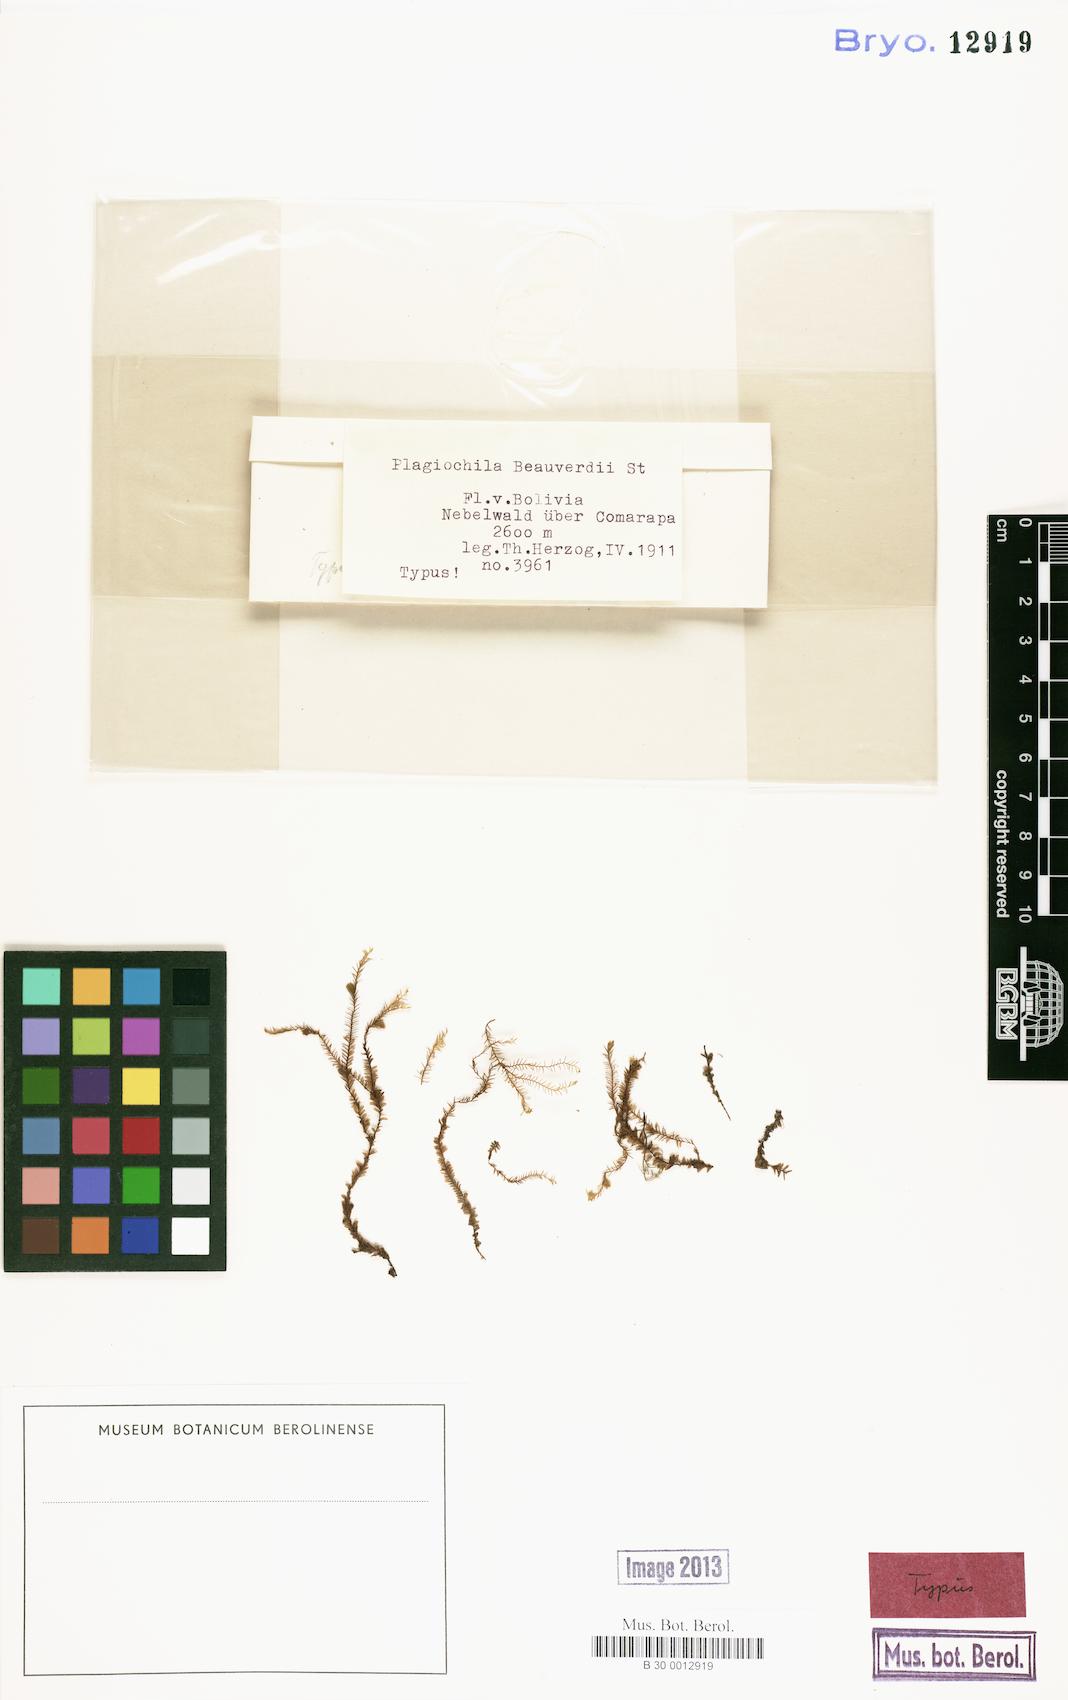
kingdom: Plantae
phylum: Marchantiophyta
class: Jungermanniopsida
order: Jungermanniales
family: Plagiochilaceae
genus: Plagiochila
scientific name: Plagiochila macra
